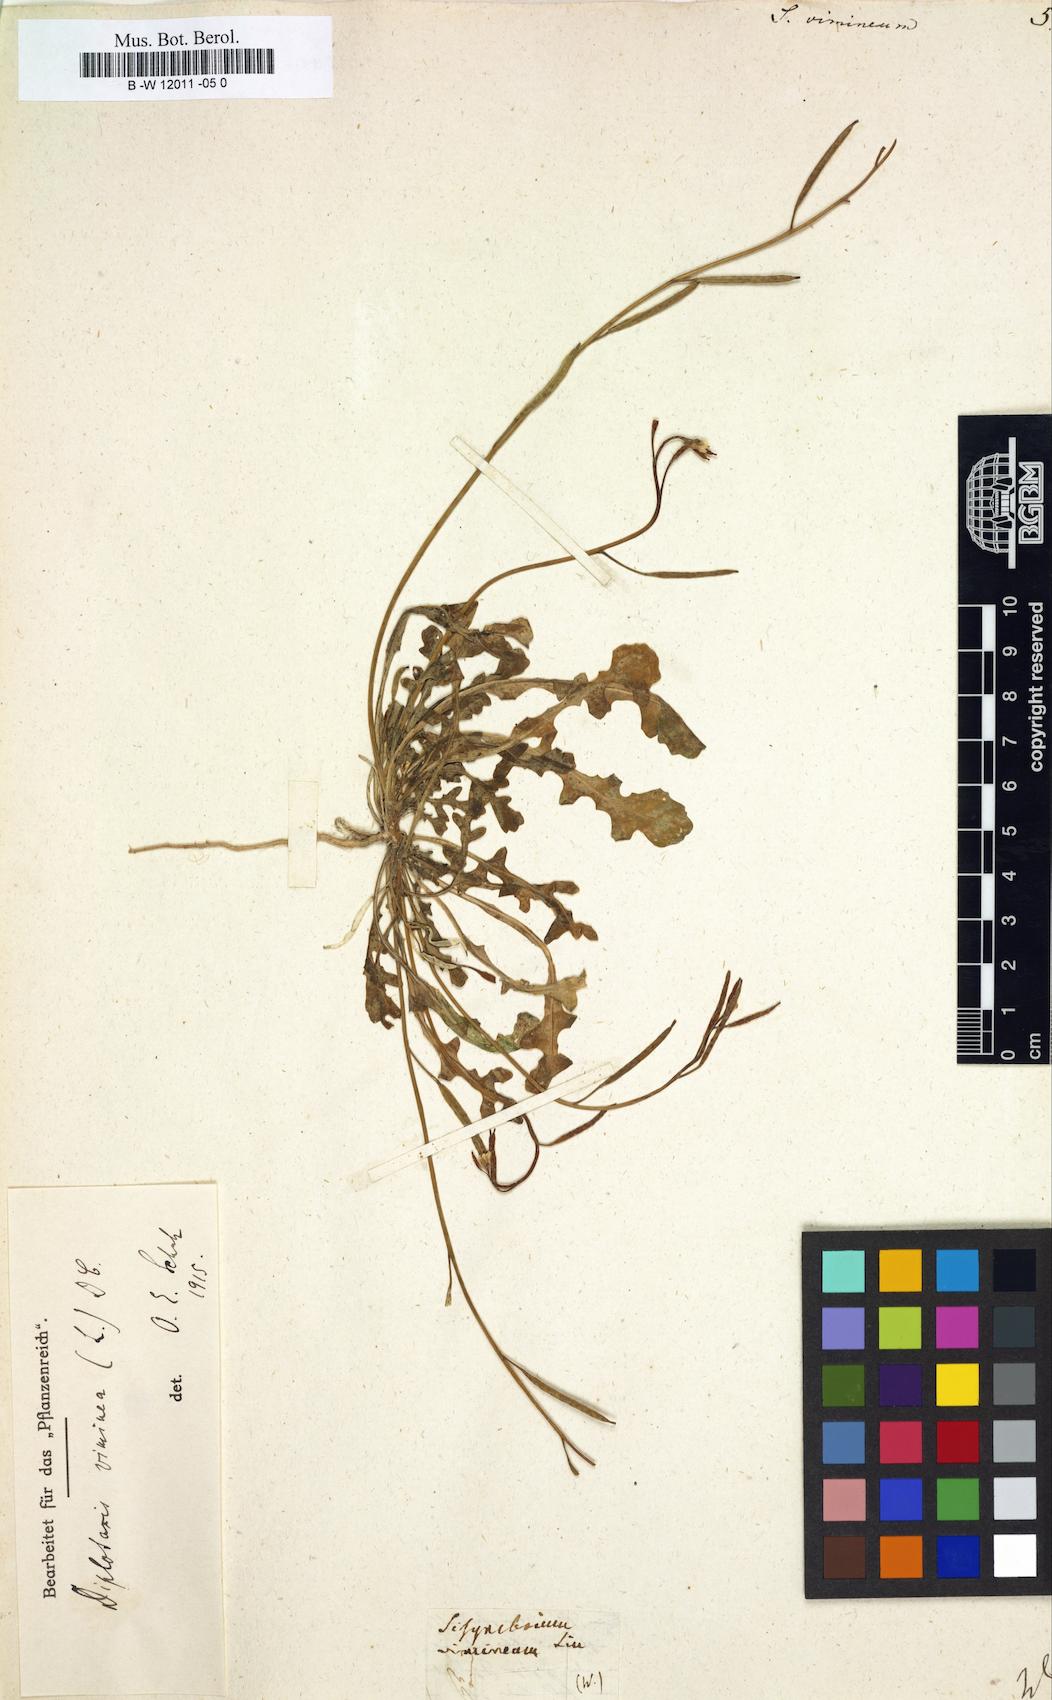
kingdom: Plantae
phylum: Tracheophyta
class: Magnoliopsida
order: Brassicales
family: Brassicaceae
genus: Sisymbrium
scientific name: Sisymbrium vimineum
